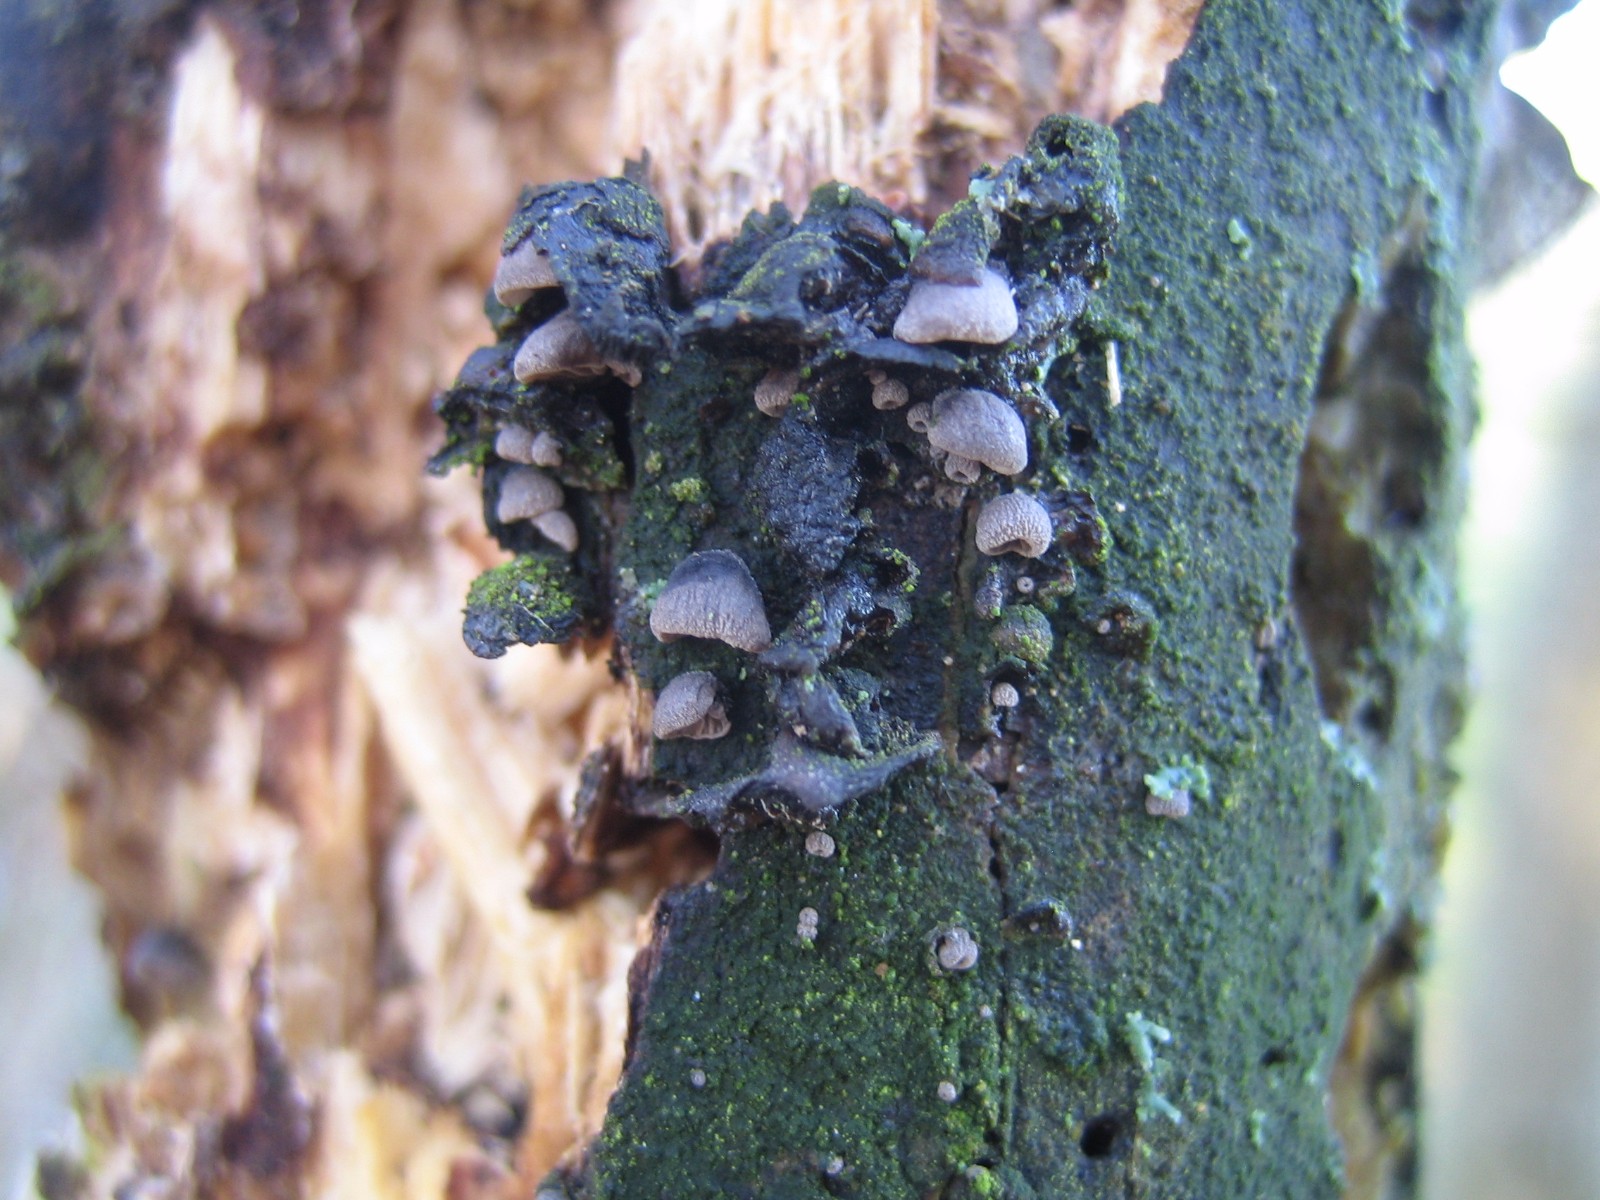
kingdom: Fungi
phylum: Basidiomycota
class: Agaricomycetes
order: Agaricales
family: Pleurotaceae
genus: Resupinatus
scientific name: Resupinatus trichotis
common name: mørkfiltet barkhat
